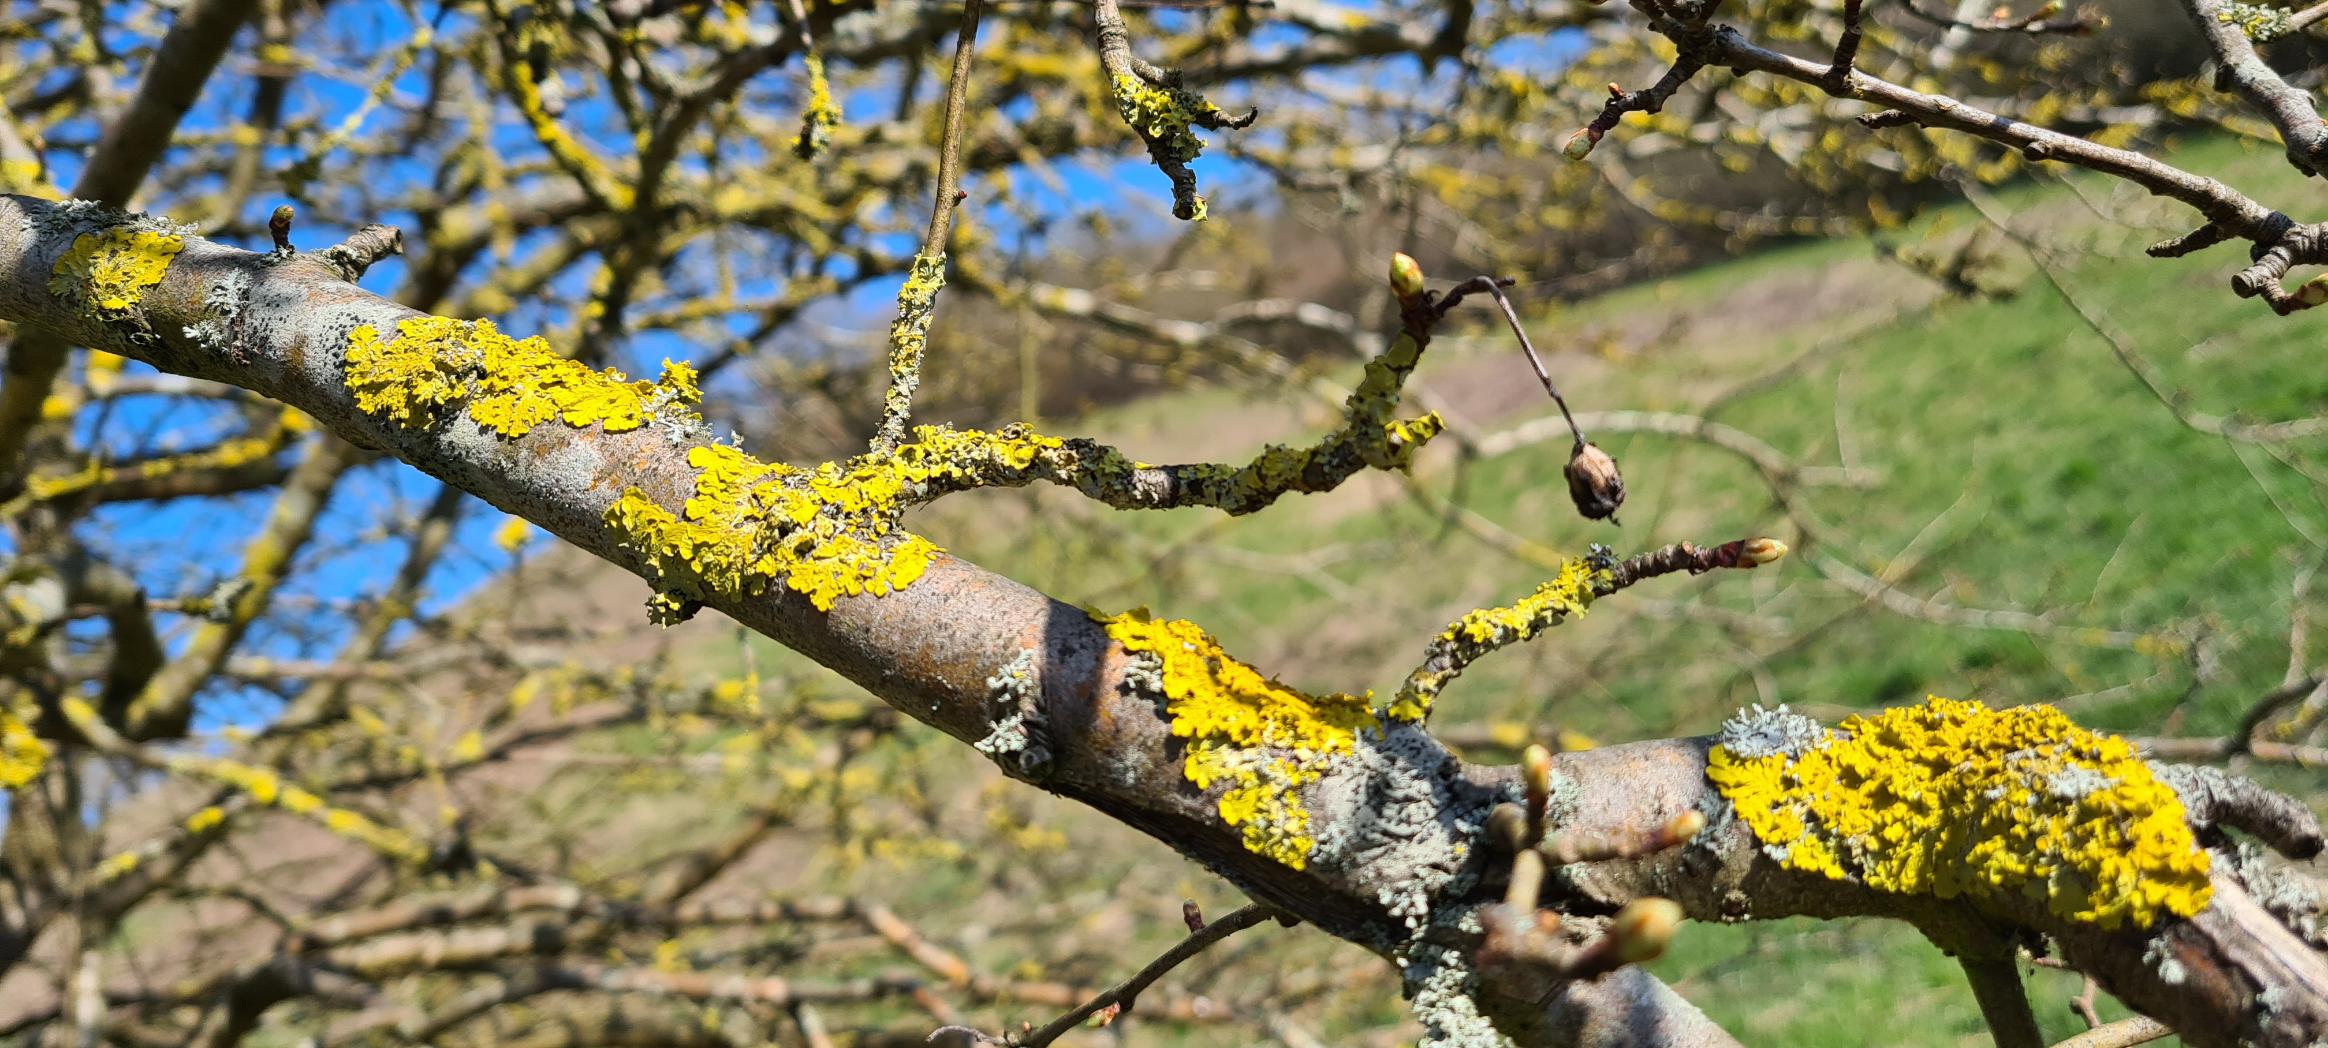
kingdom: Fungi
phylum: Ascomycota
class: Lecanoromycetes
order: Teloschistales
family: Teloschistaceae
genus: Xanthoria
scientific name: Xanthoria parietina
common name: Almindelig væggelav
